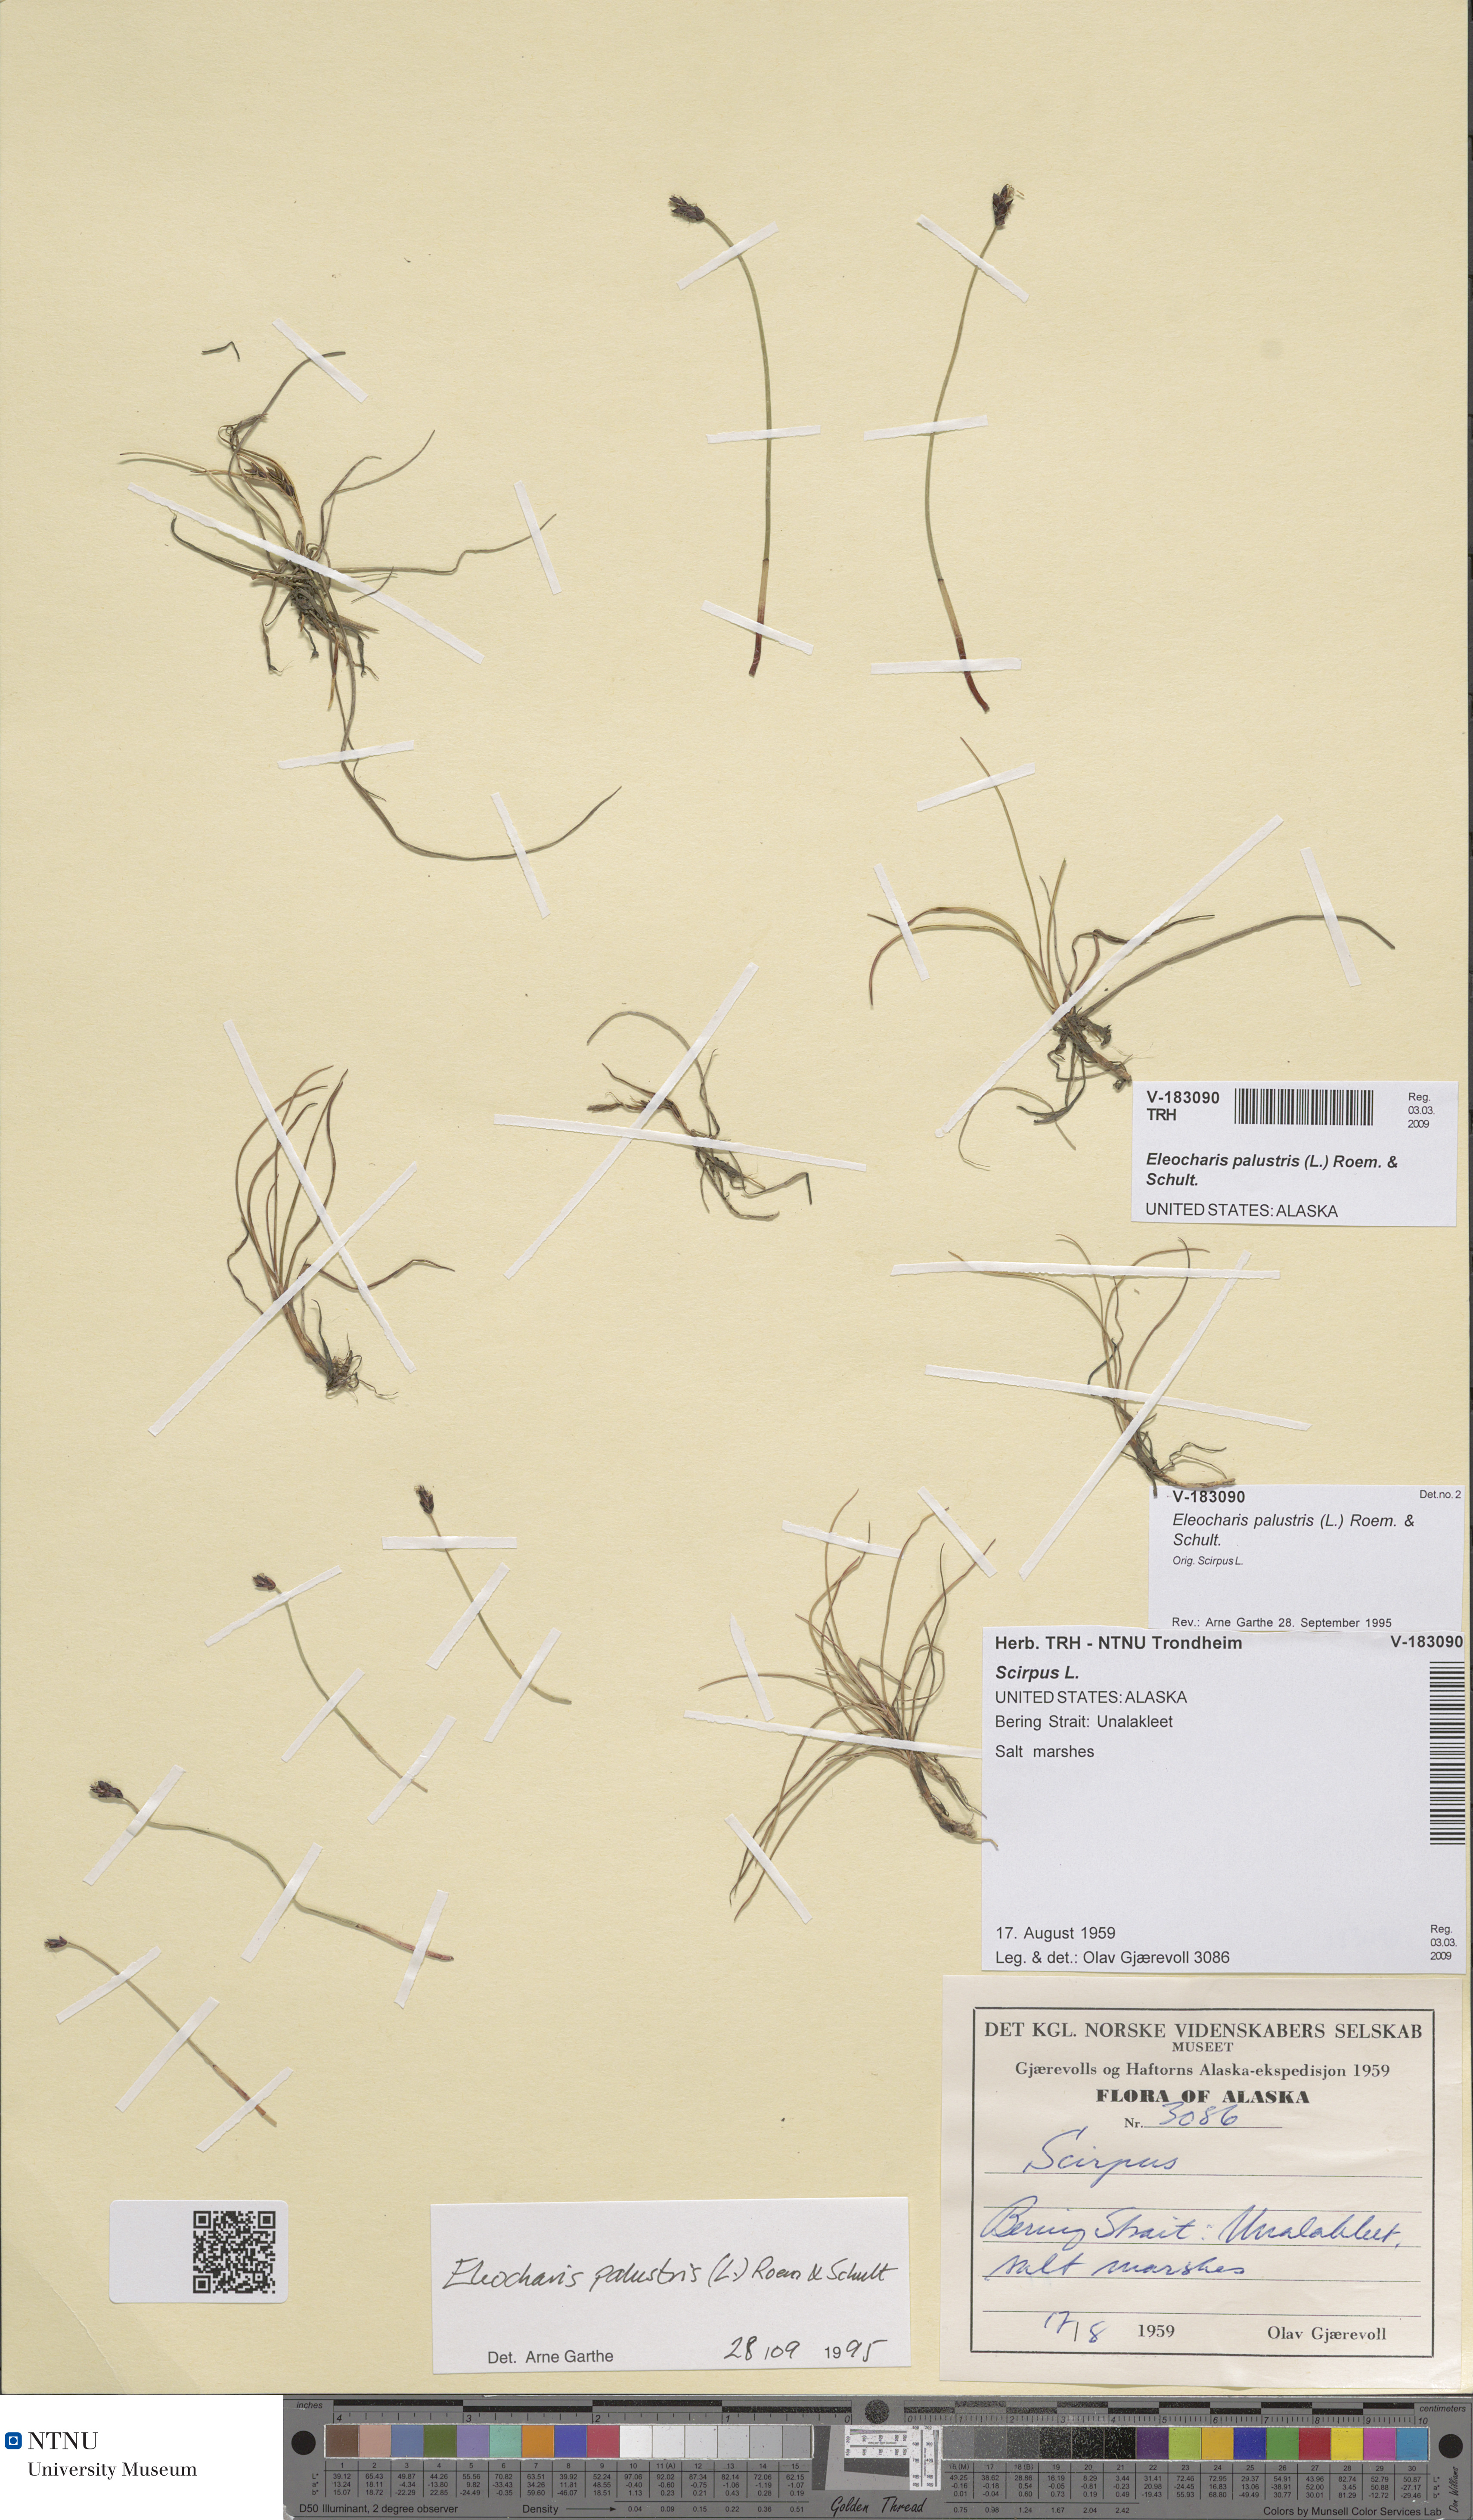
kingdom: Plantae
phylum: Tracheophyta
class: Liliopsida
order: Poales
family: Cyperaceae
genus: Eleocharis
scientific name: Eleocharis palustris
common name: Common spike-rush
